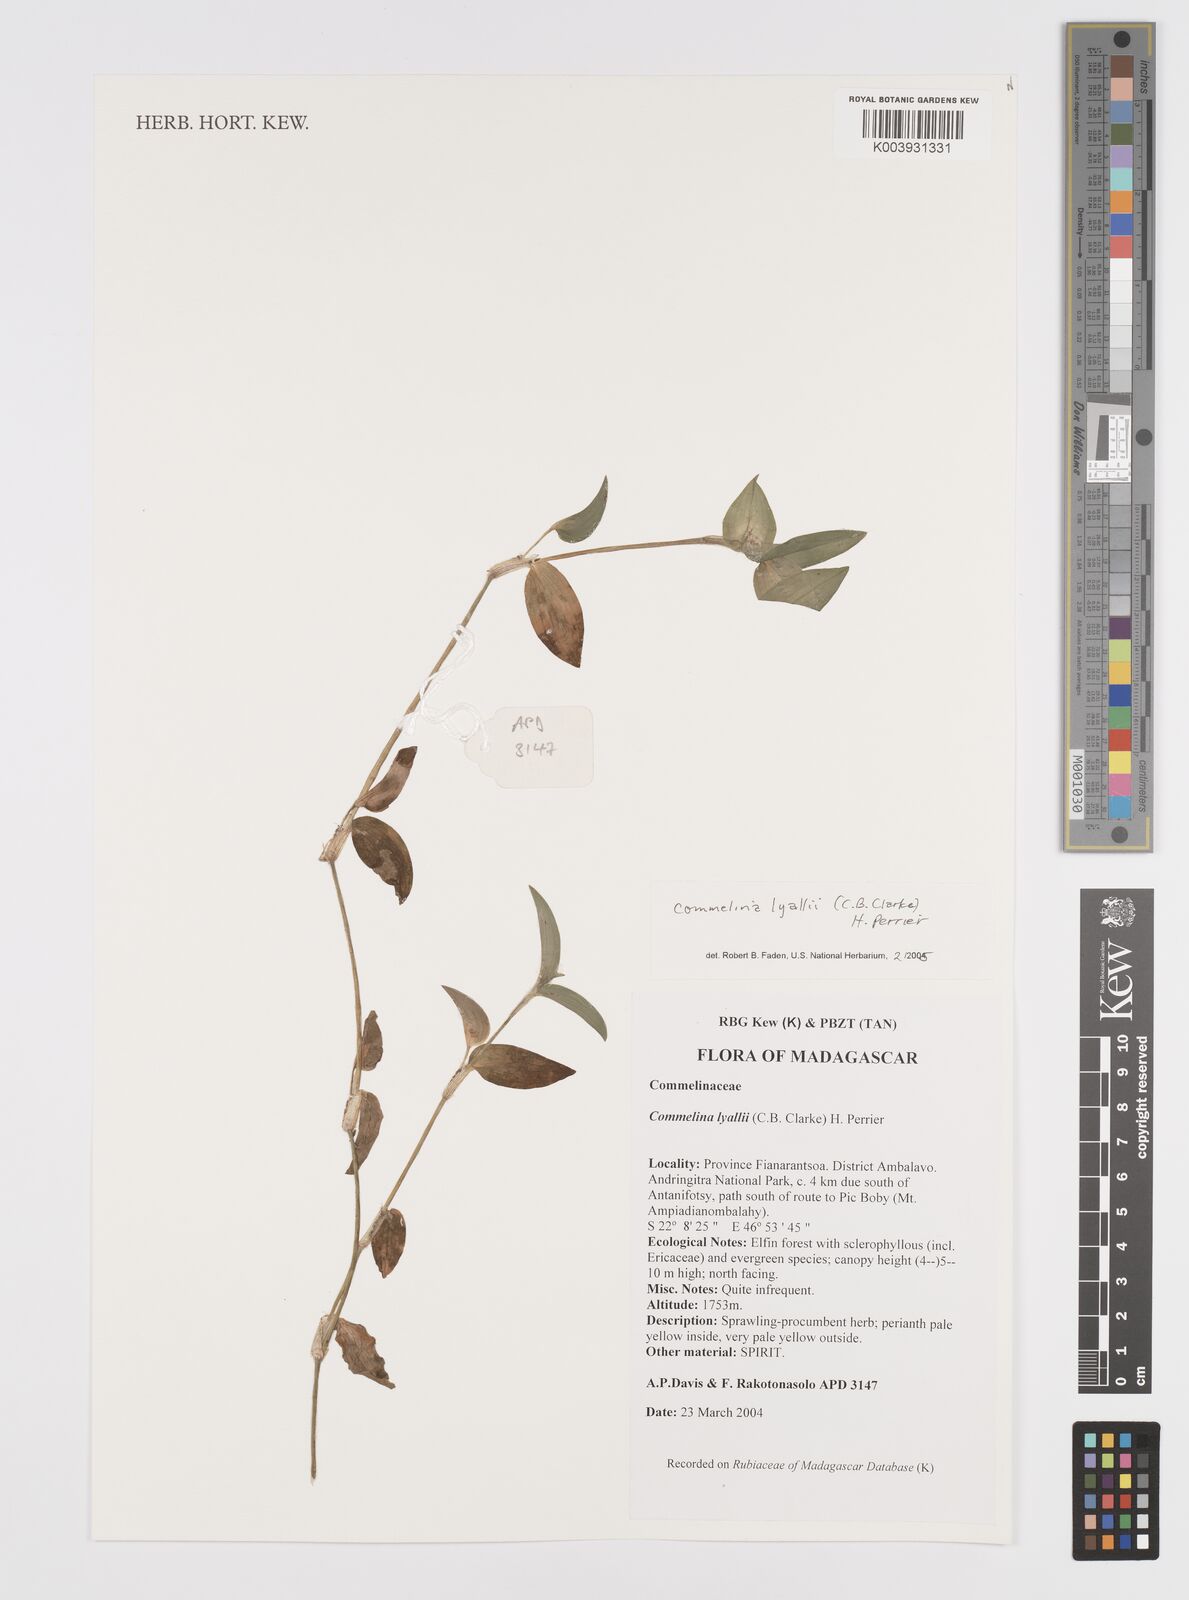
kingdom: Plantae
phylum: Tracheophyta
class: Liliopsida
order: Commelinales
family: Commelinaceae
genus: Commelina
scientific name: Commelina africana
